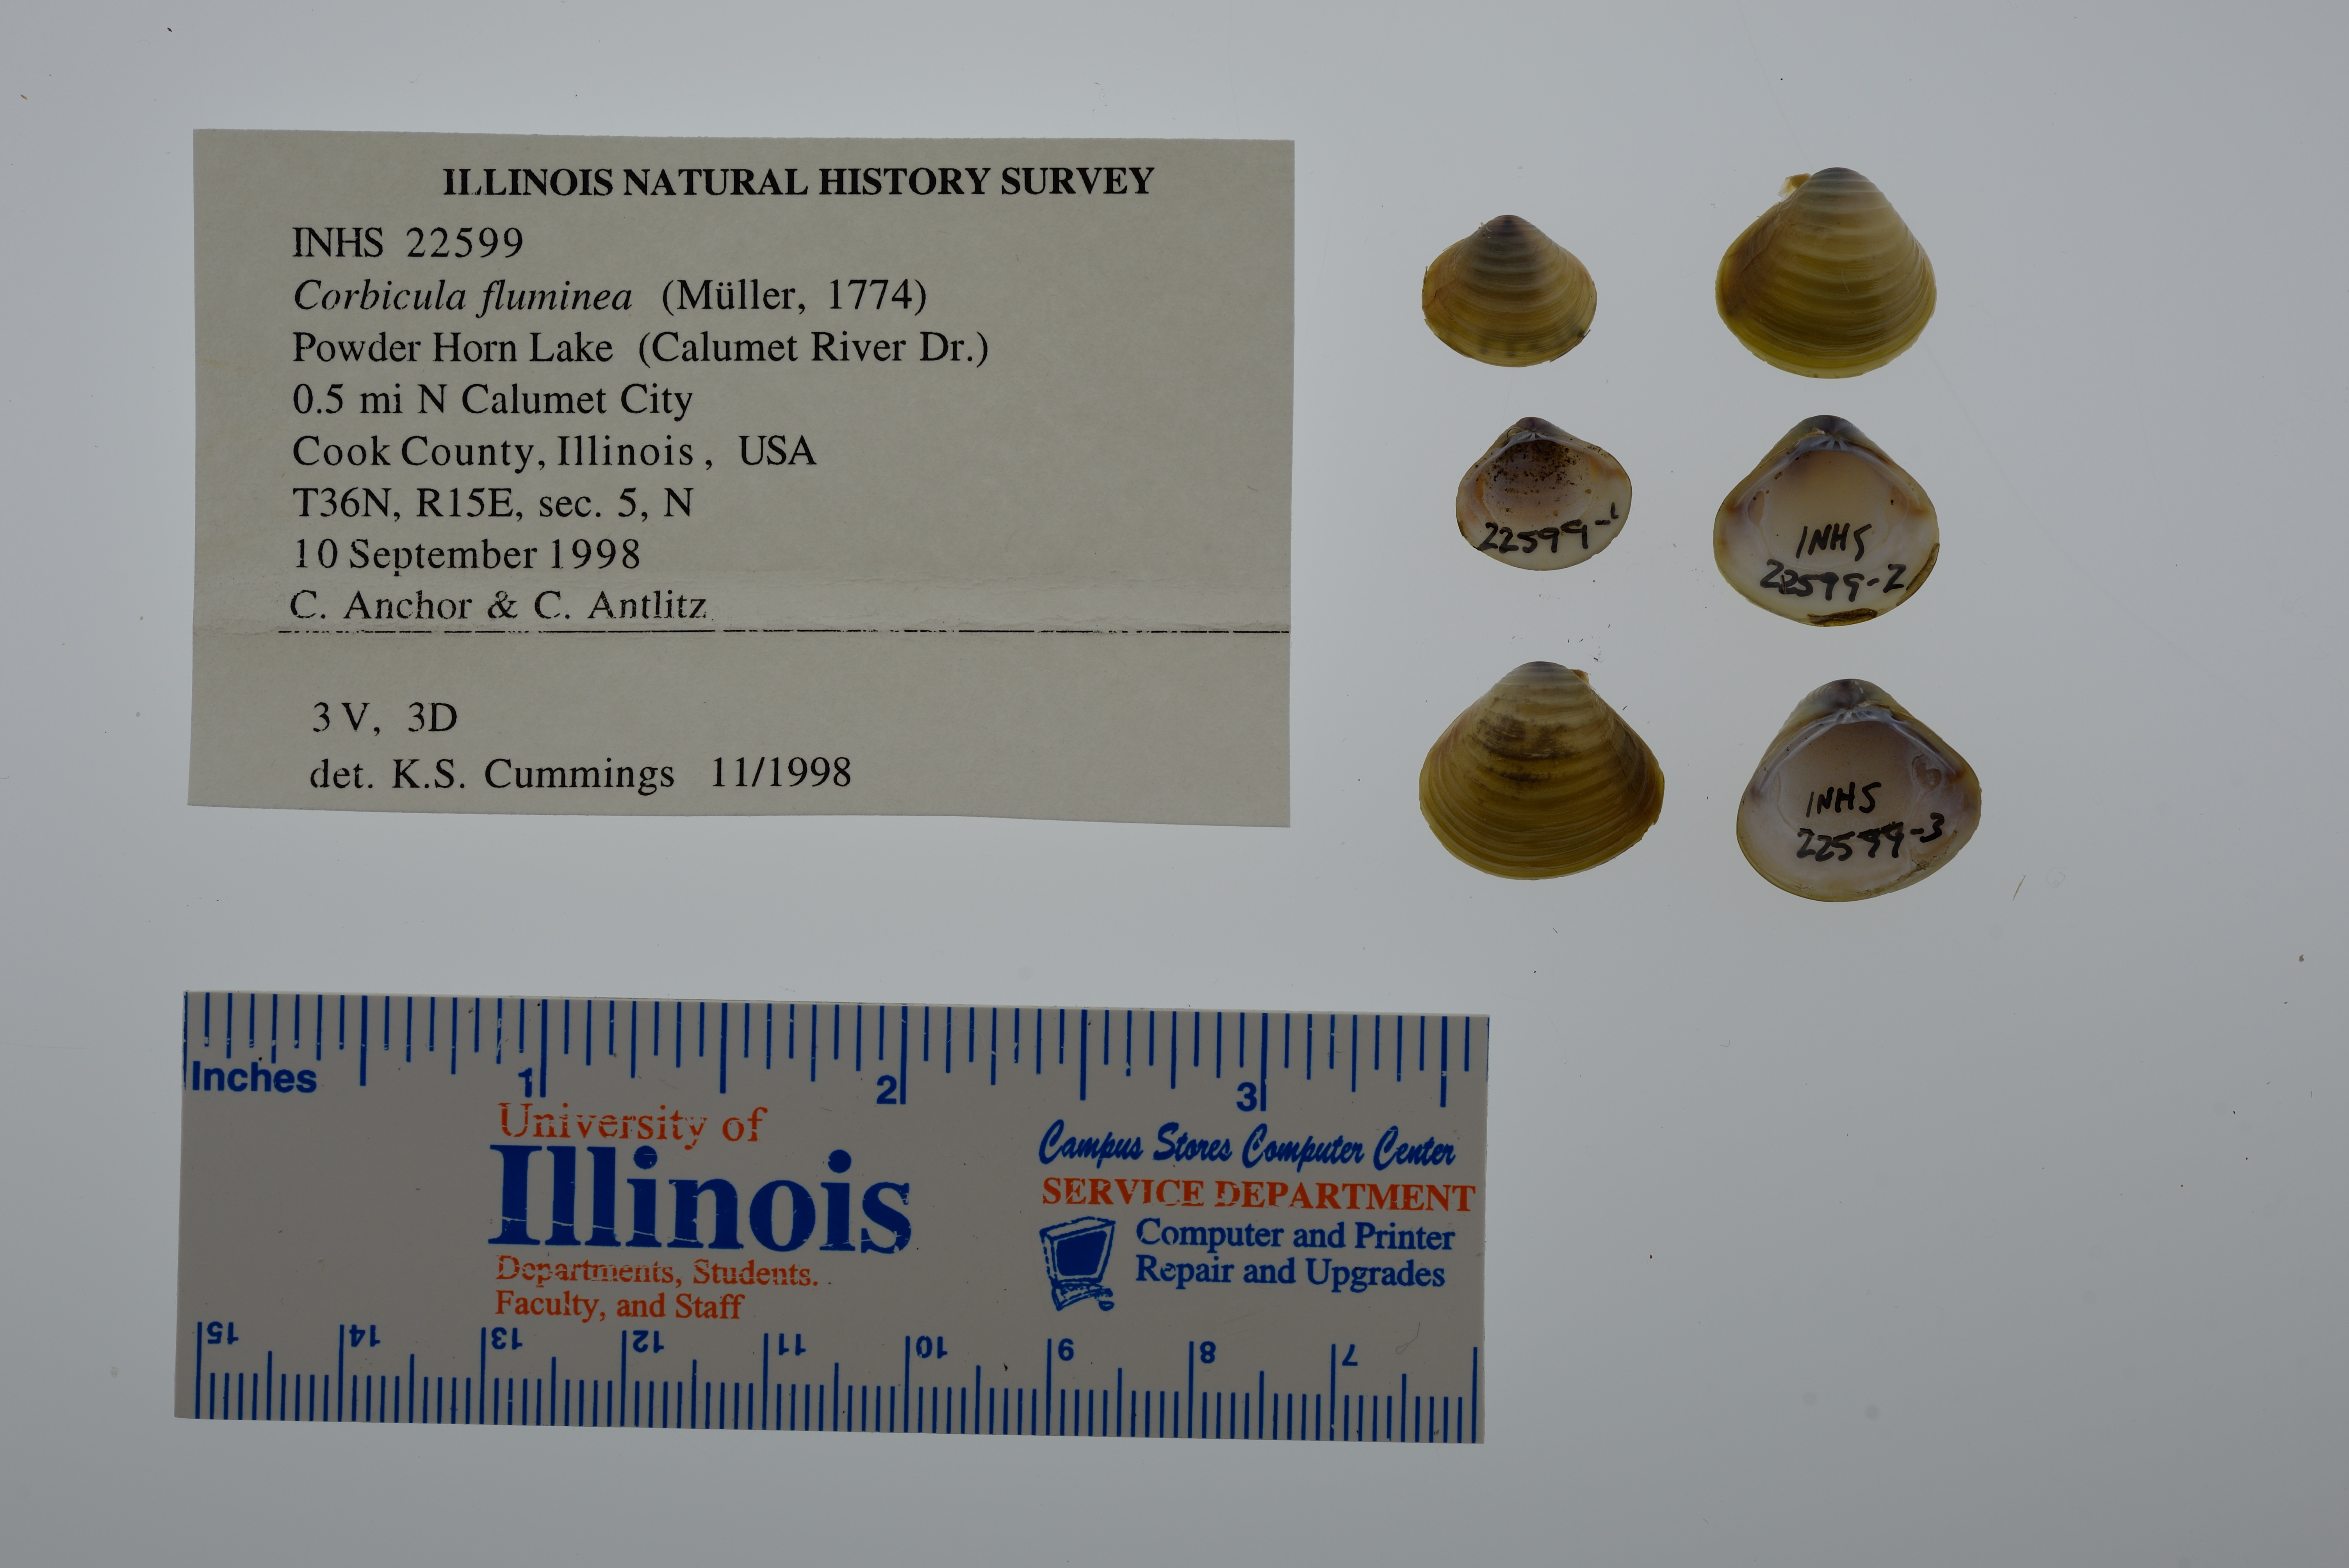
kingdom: Animalia
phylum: Mollusca
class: Bivalvia
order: Venerida
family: Cyrenidae
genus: Corbicula
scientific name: Corbicula fluminea
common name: Asian clam
